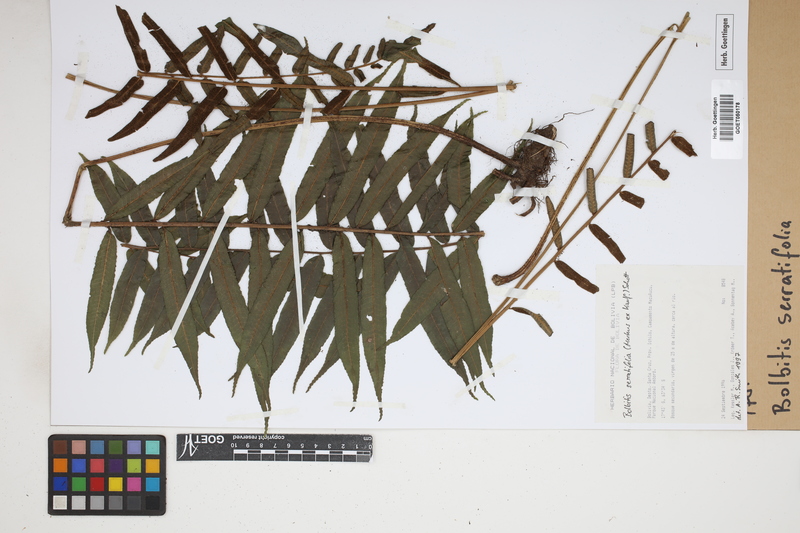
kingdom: Plantae
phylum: Tracheophyta
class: Polypodiopsida
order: Polypodiales
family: Dryopteridaceae
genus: Bolbitis
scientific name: Bolbitis serratifolia
